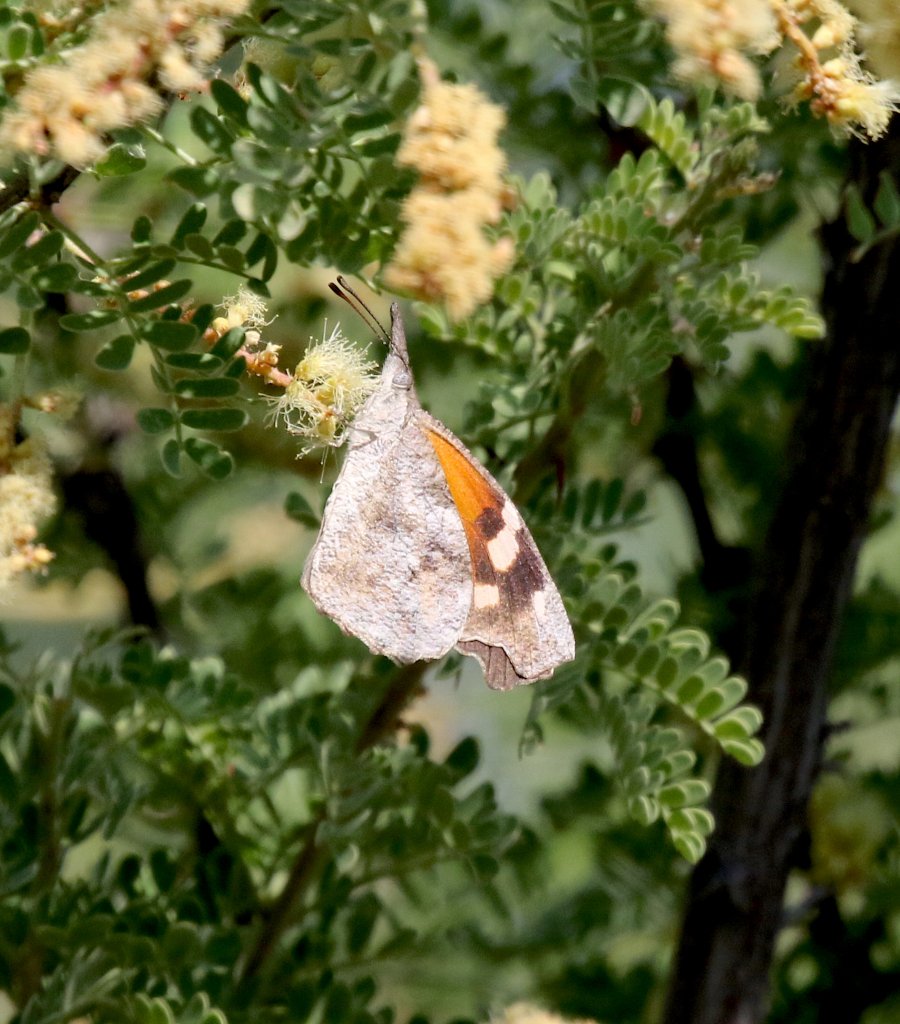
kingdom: Animalia
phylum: Arthropoda
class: Insecta
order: Lepidoptera
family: Nymphalidae
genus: Libytheana
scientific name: Libytheana carinenta
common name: American Snout
